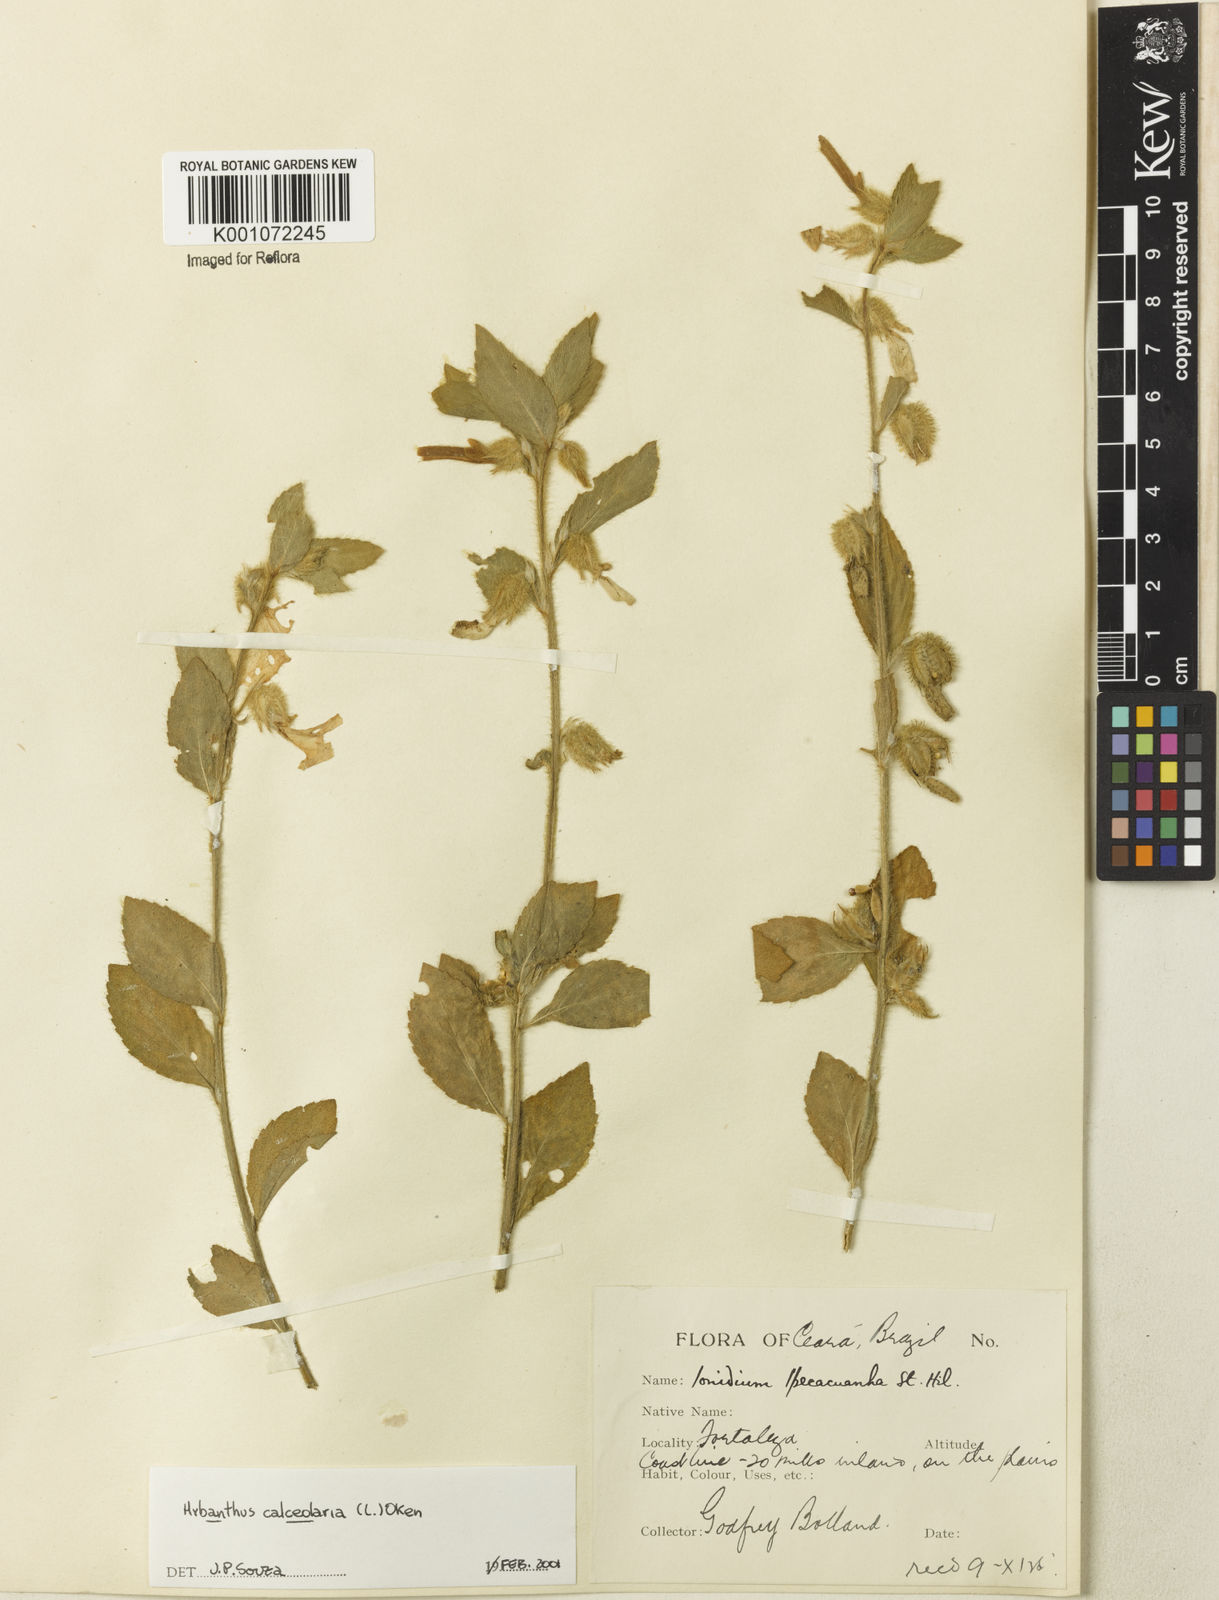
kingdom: Plantae
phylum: Tracheophyta
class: Magnoliopsida
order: Malpighiales
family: Violaceae
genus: Pombalia
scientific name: Pombalia calceolaria
